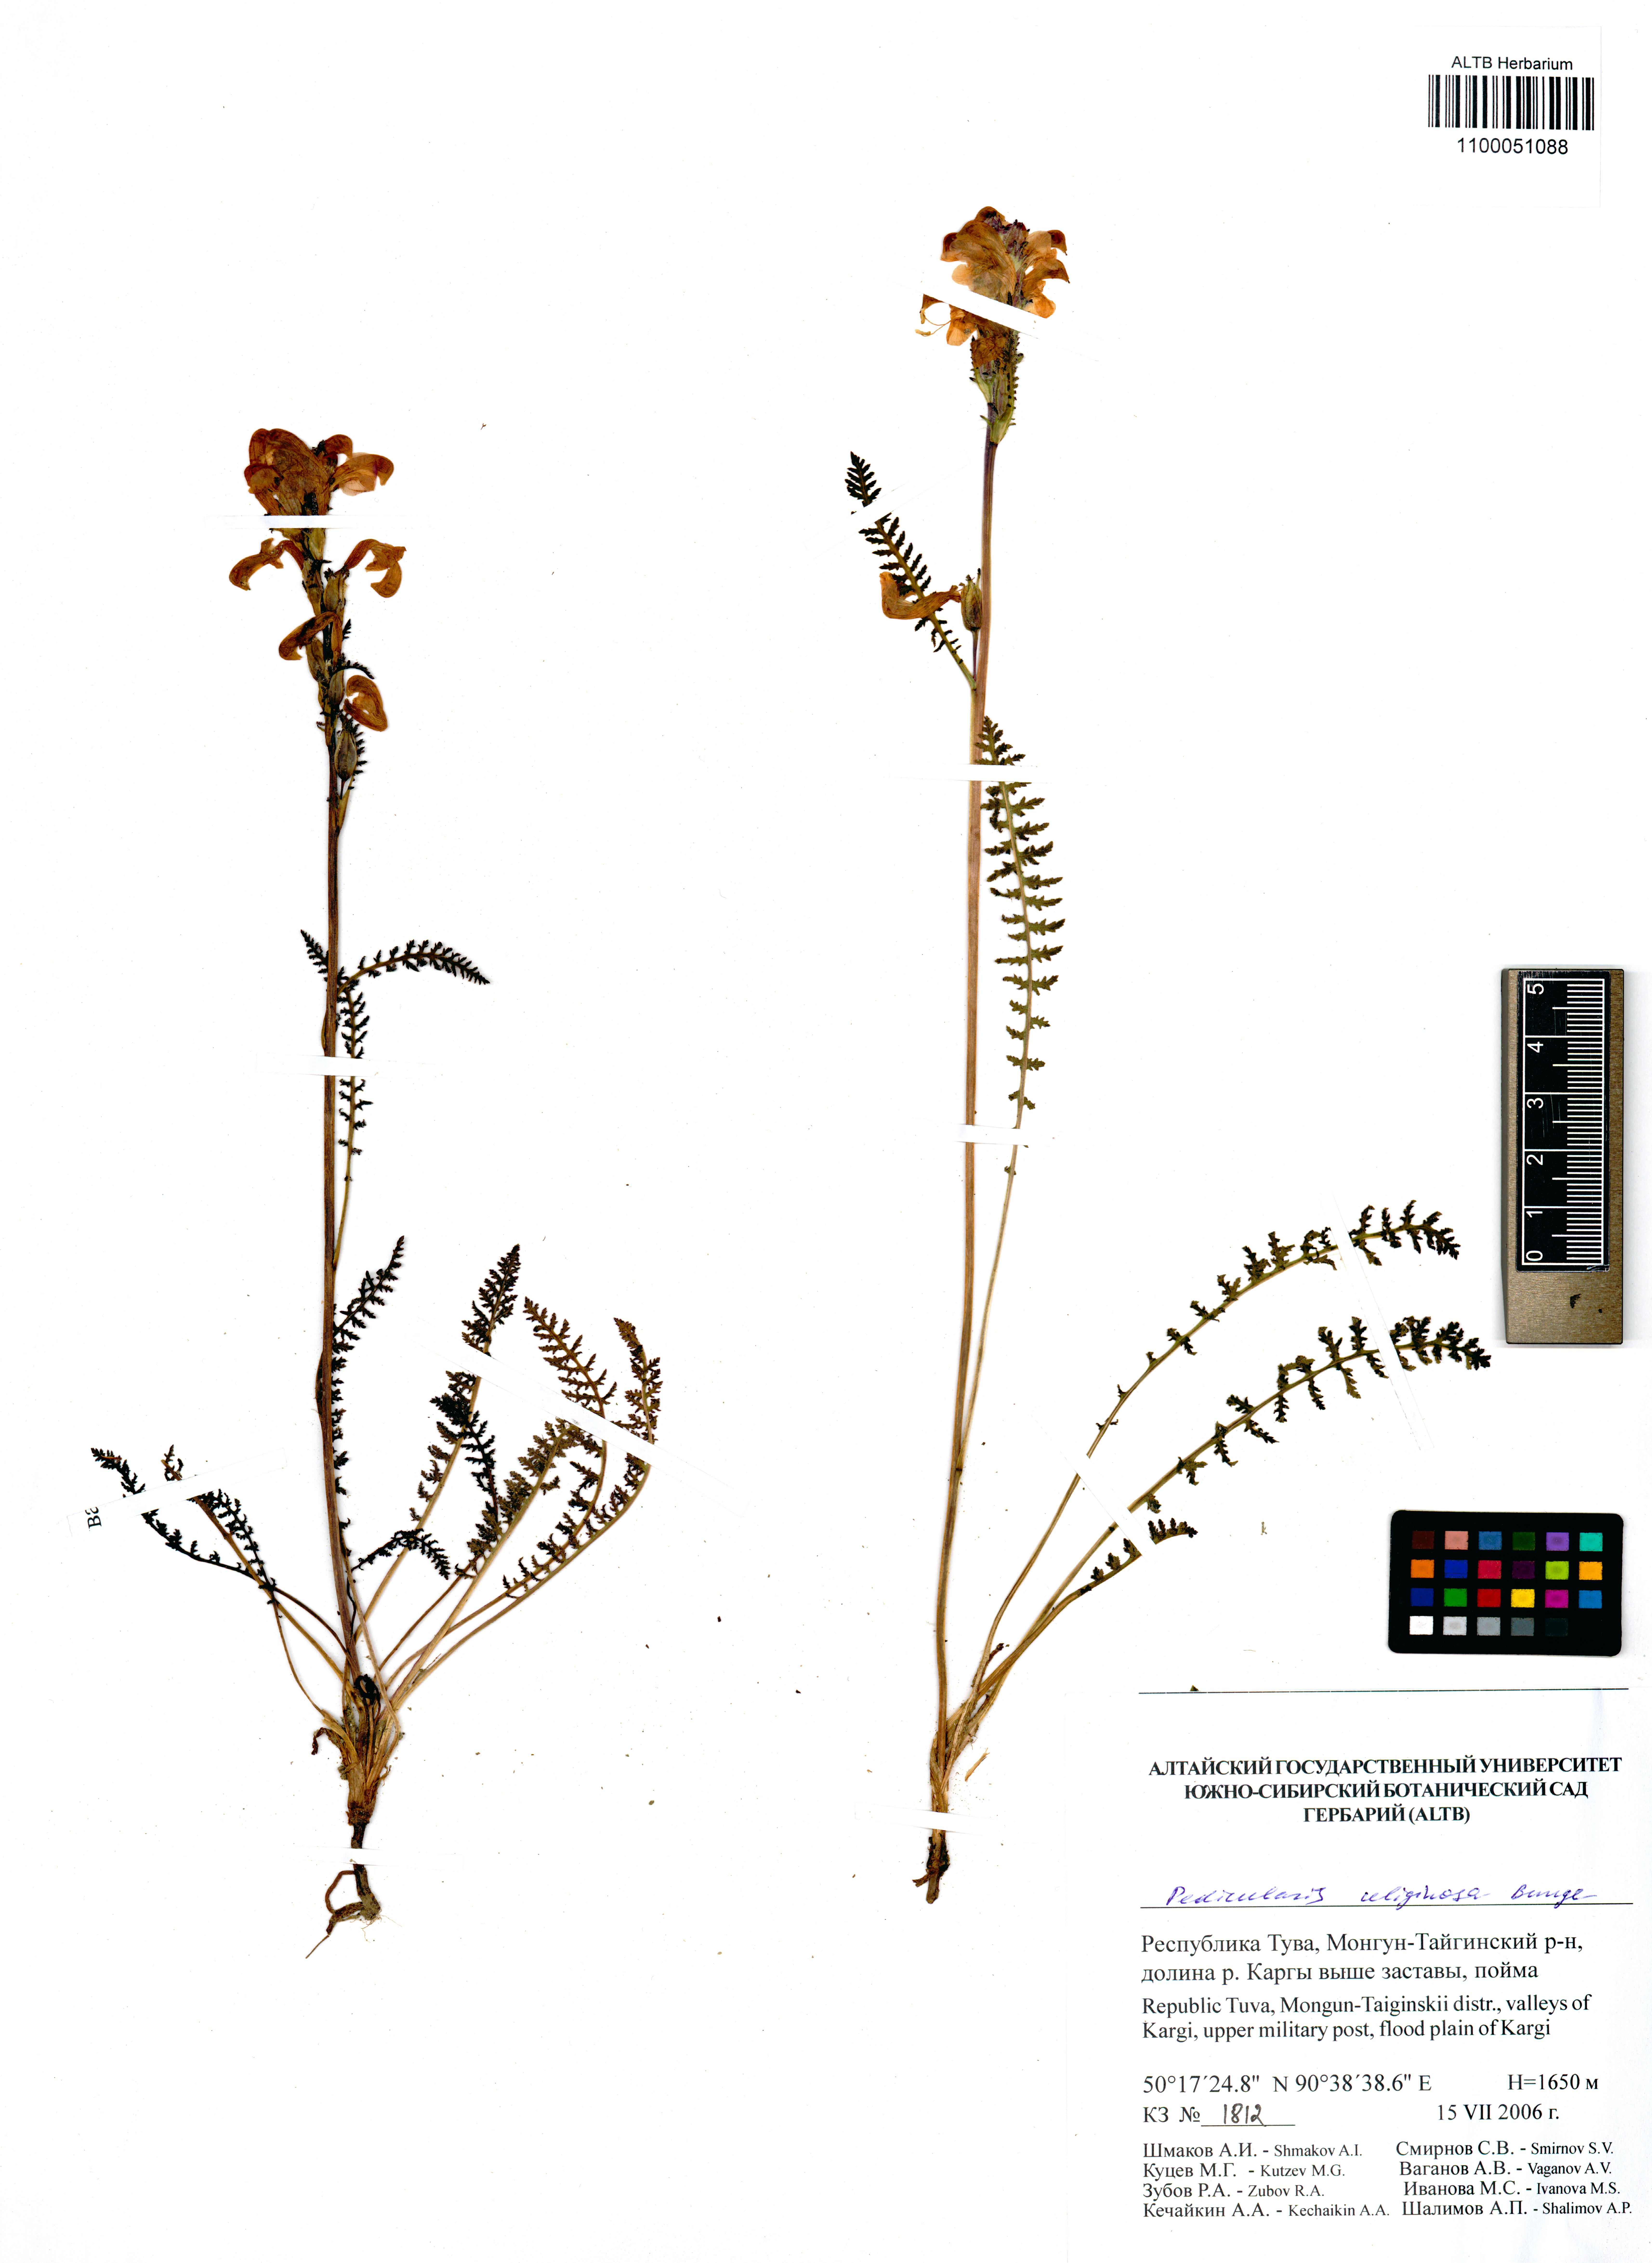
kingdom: Plantae
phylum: Tracheophyta
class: Magnoliopsida
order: Lamiales
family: Orobanchaceae
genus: Pedicularis
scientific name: Pedicularis uliginosa
